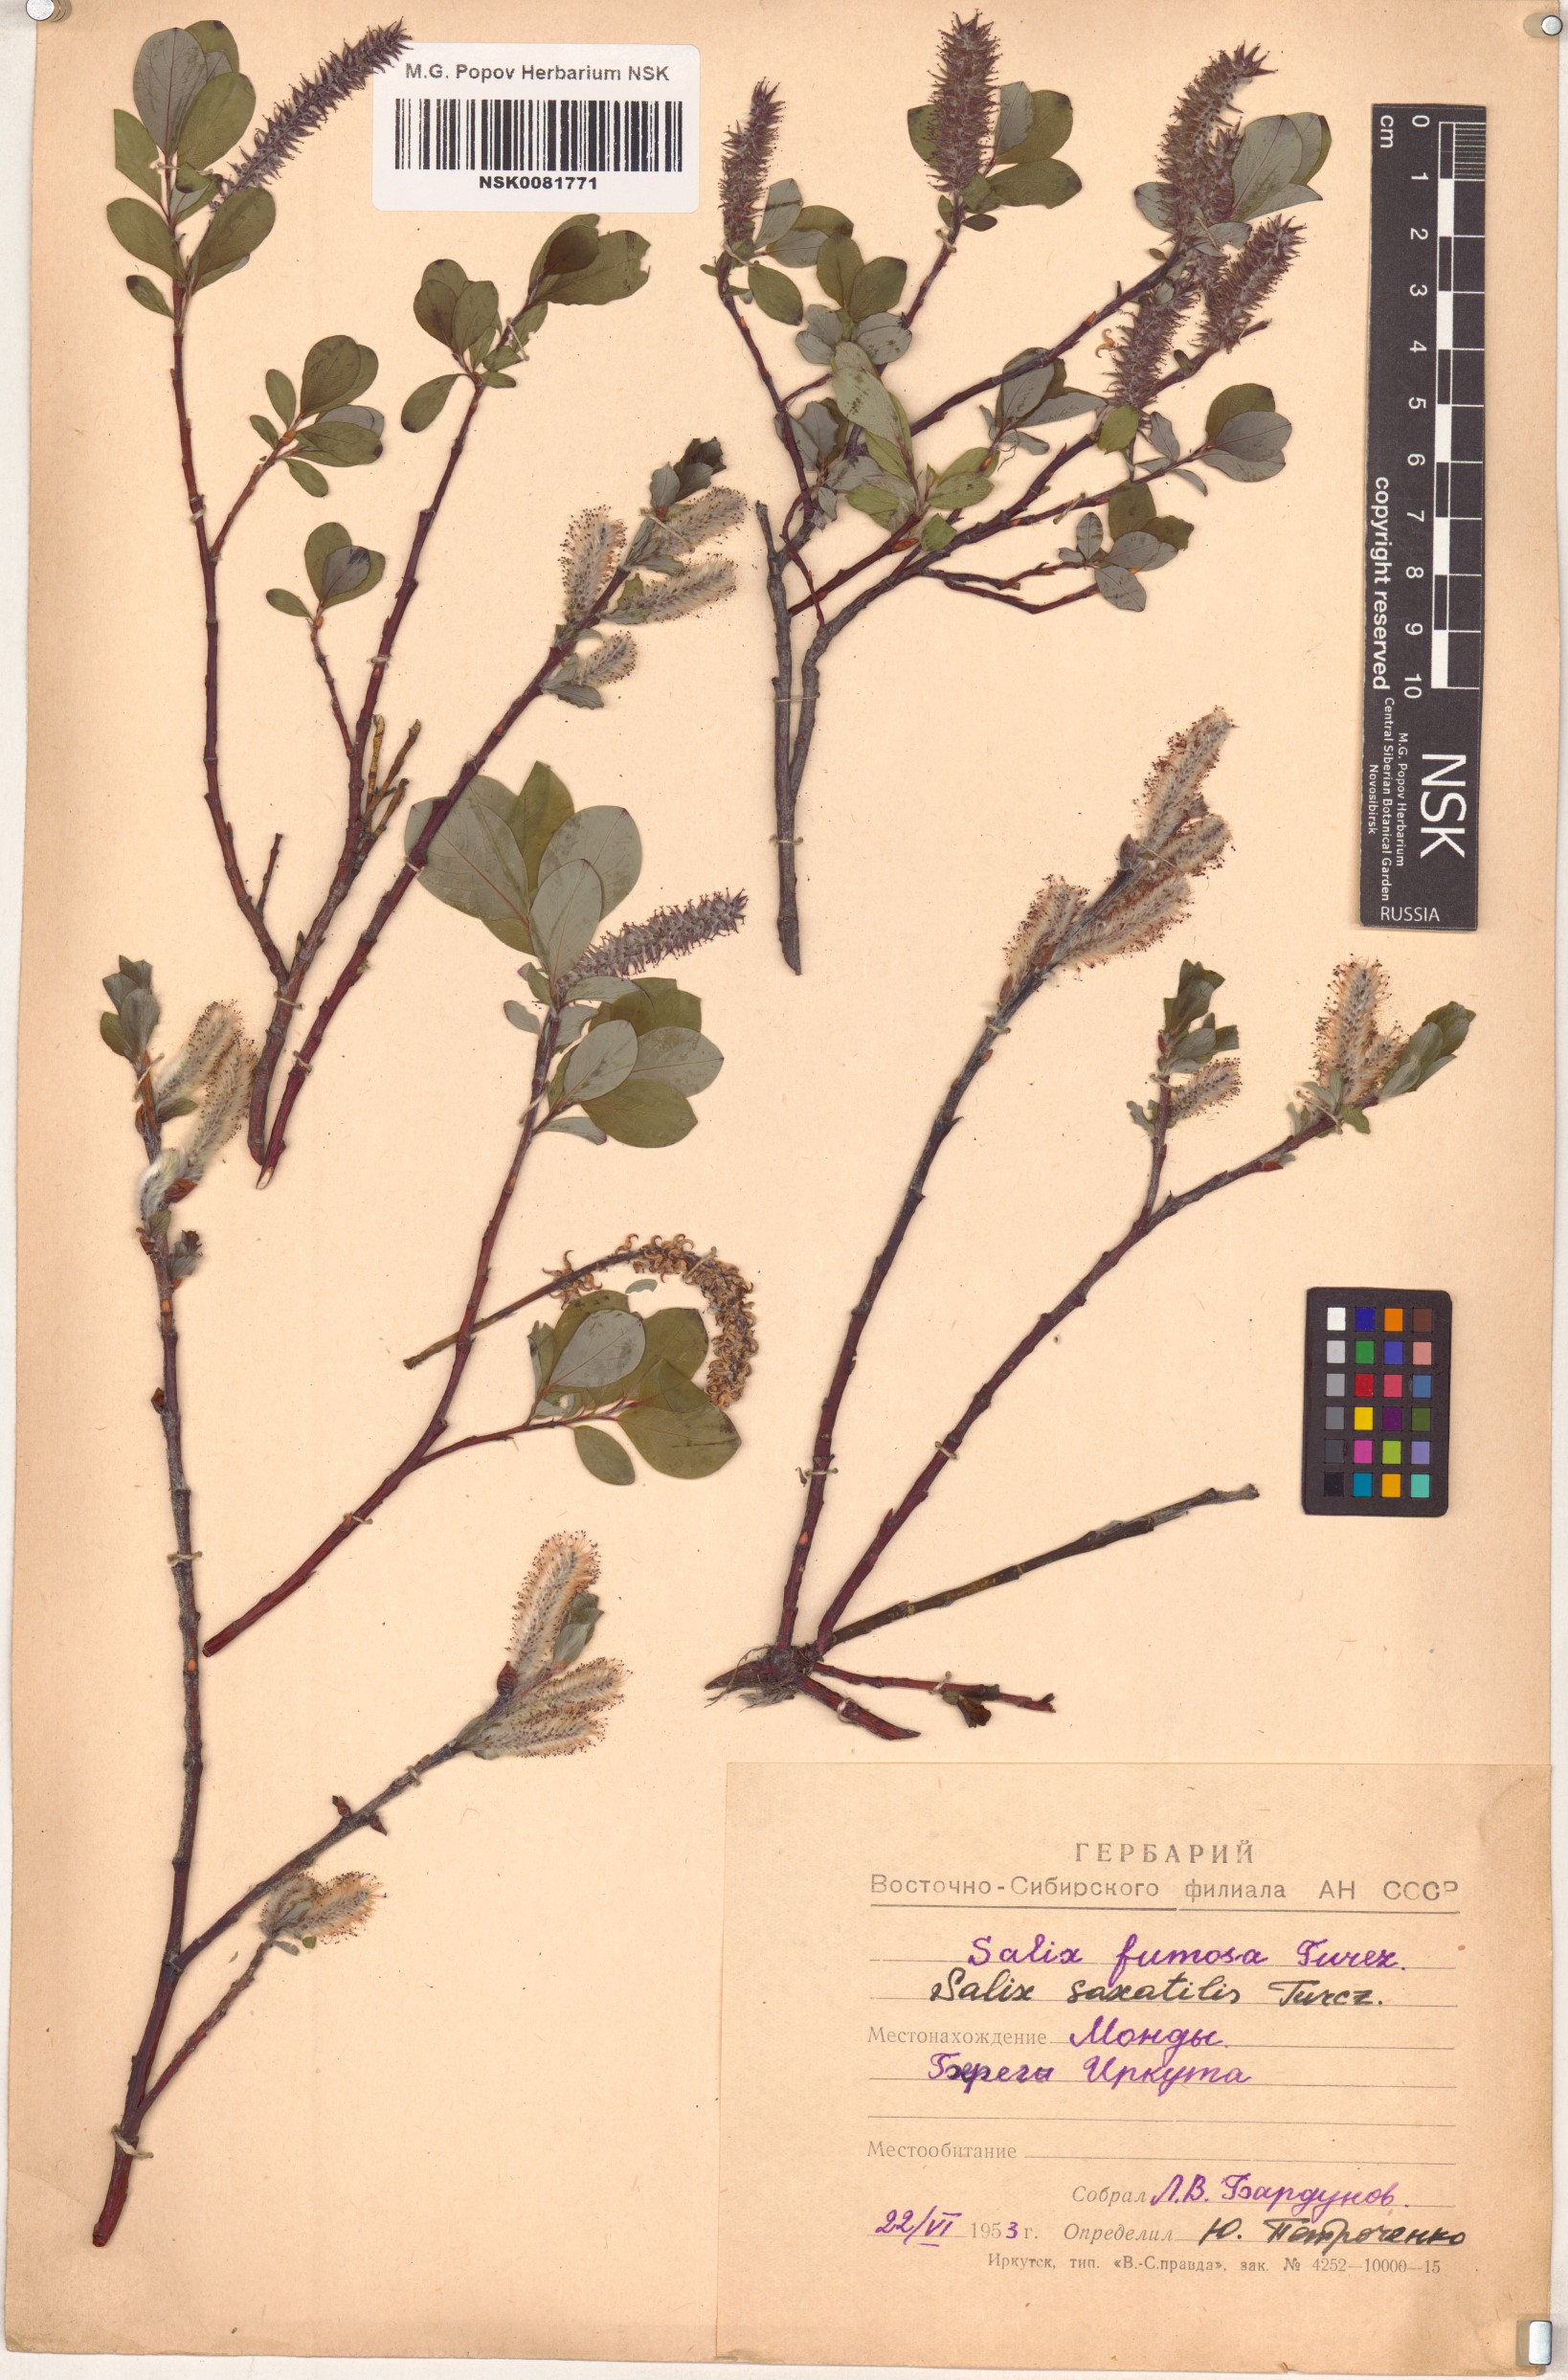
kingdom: Plantae
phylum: Tracheophyta
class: Magnoliopsida
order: Malpighiales
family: Salicaceae
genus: Salix
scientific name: Salix saxatilis
